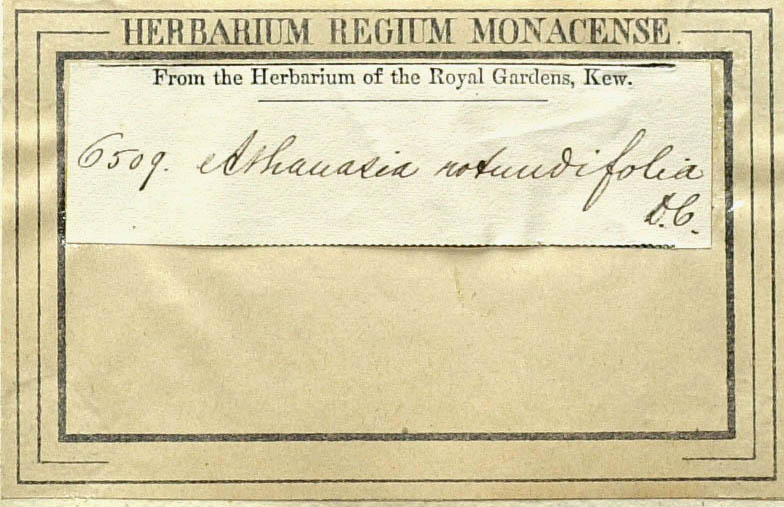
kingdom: Plantae
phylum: Tracheophyta
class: Magnoliopsida
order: Asterales
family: Asteraceae
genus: Athanasia
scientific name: Athanasia quinquedentata
